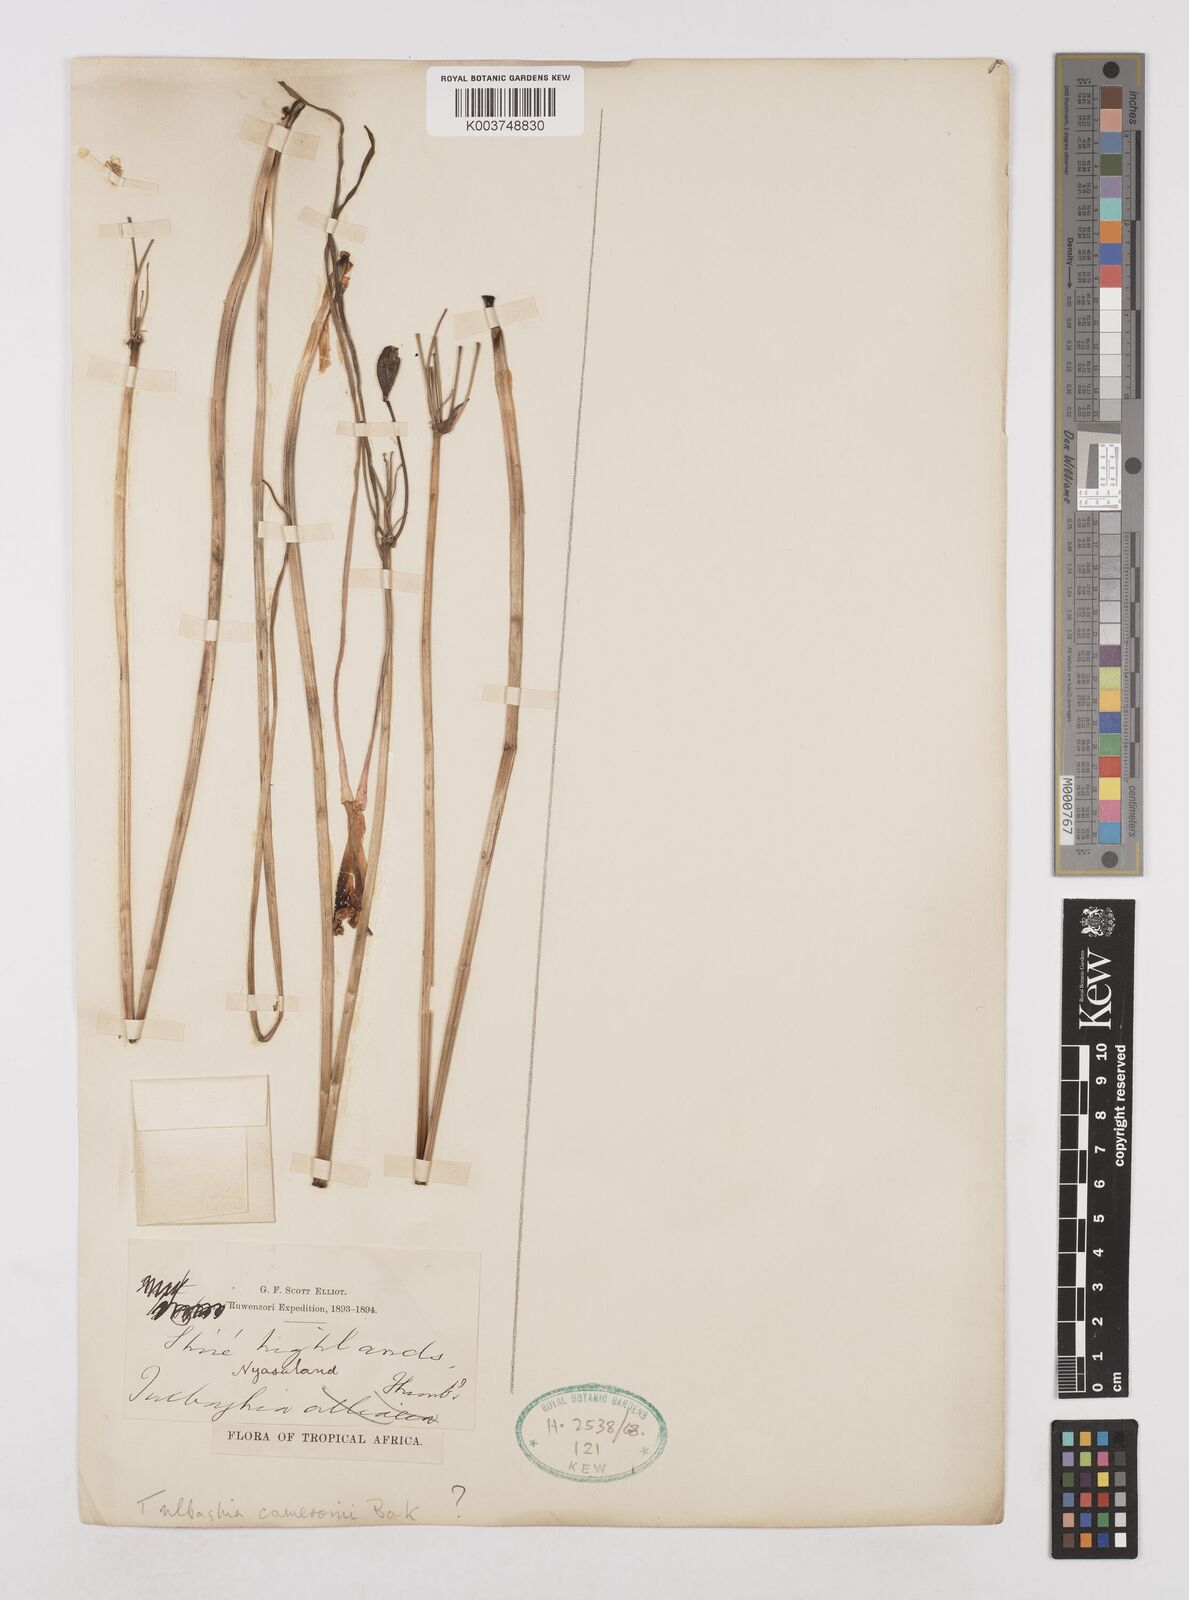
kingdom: Plantae
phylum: Tracheophyta
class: Liliopsida
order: Asparagales
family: Amaryllidaceae
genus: Tulbaghia
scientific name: Tulbaghia cameronii
